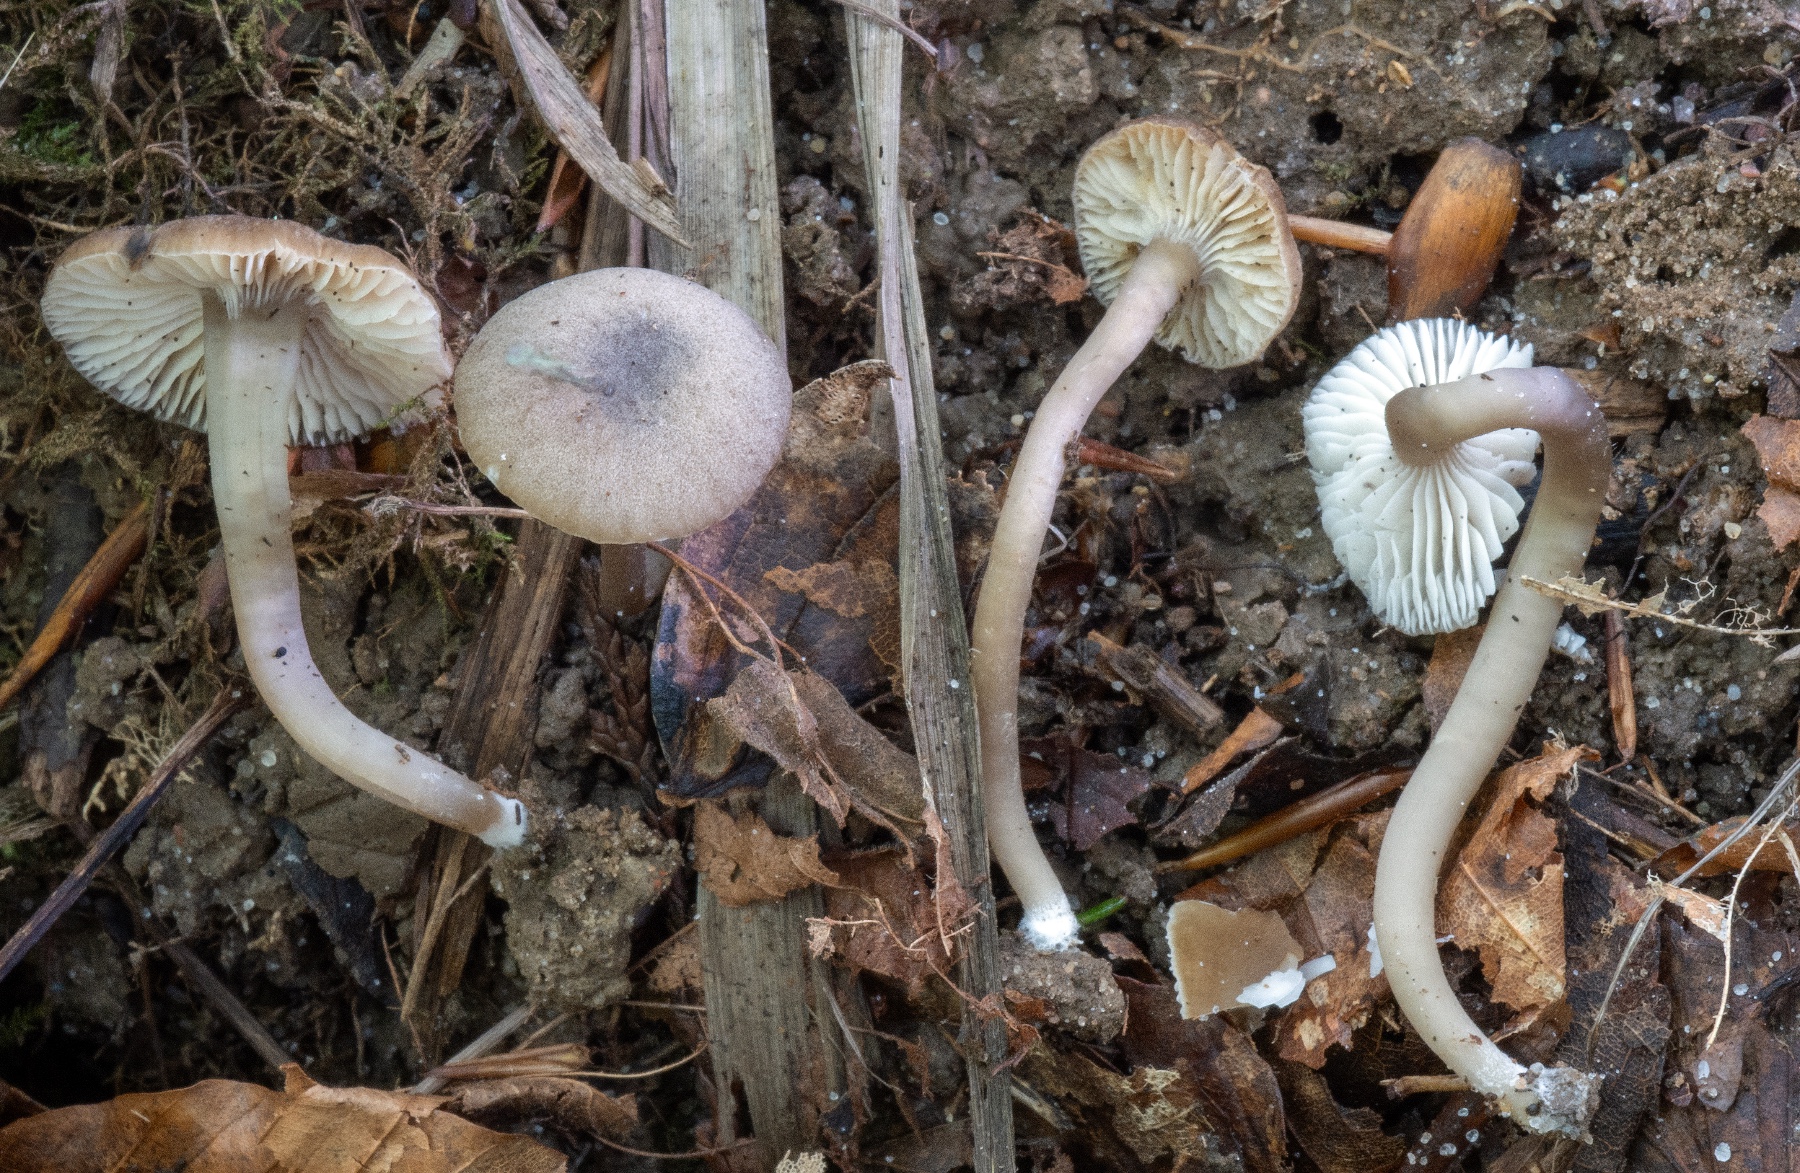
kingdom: Fungi
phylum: Basidiomycota
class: Agaricomycetes
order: Agaricales
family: Clavariaceae
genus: Camarophyllopsis
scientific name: Camarophyllopsis atrovelutina
